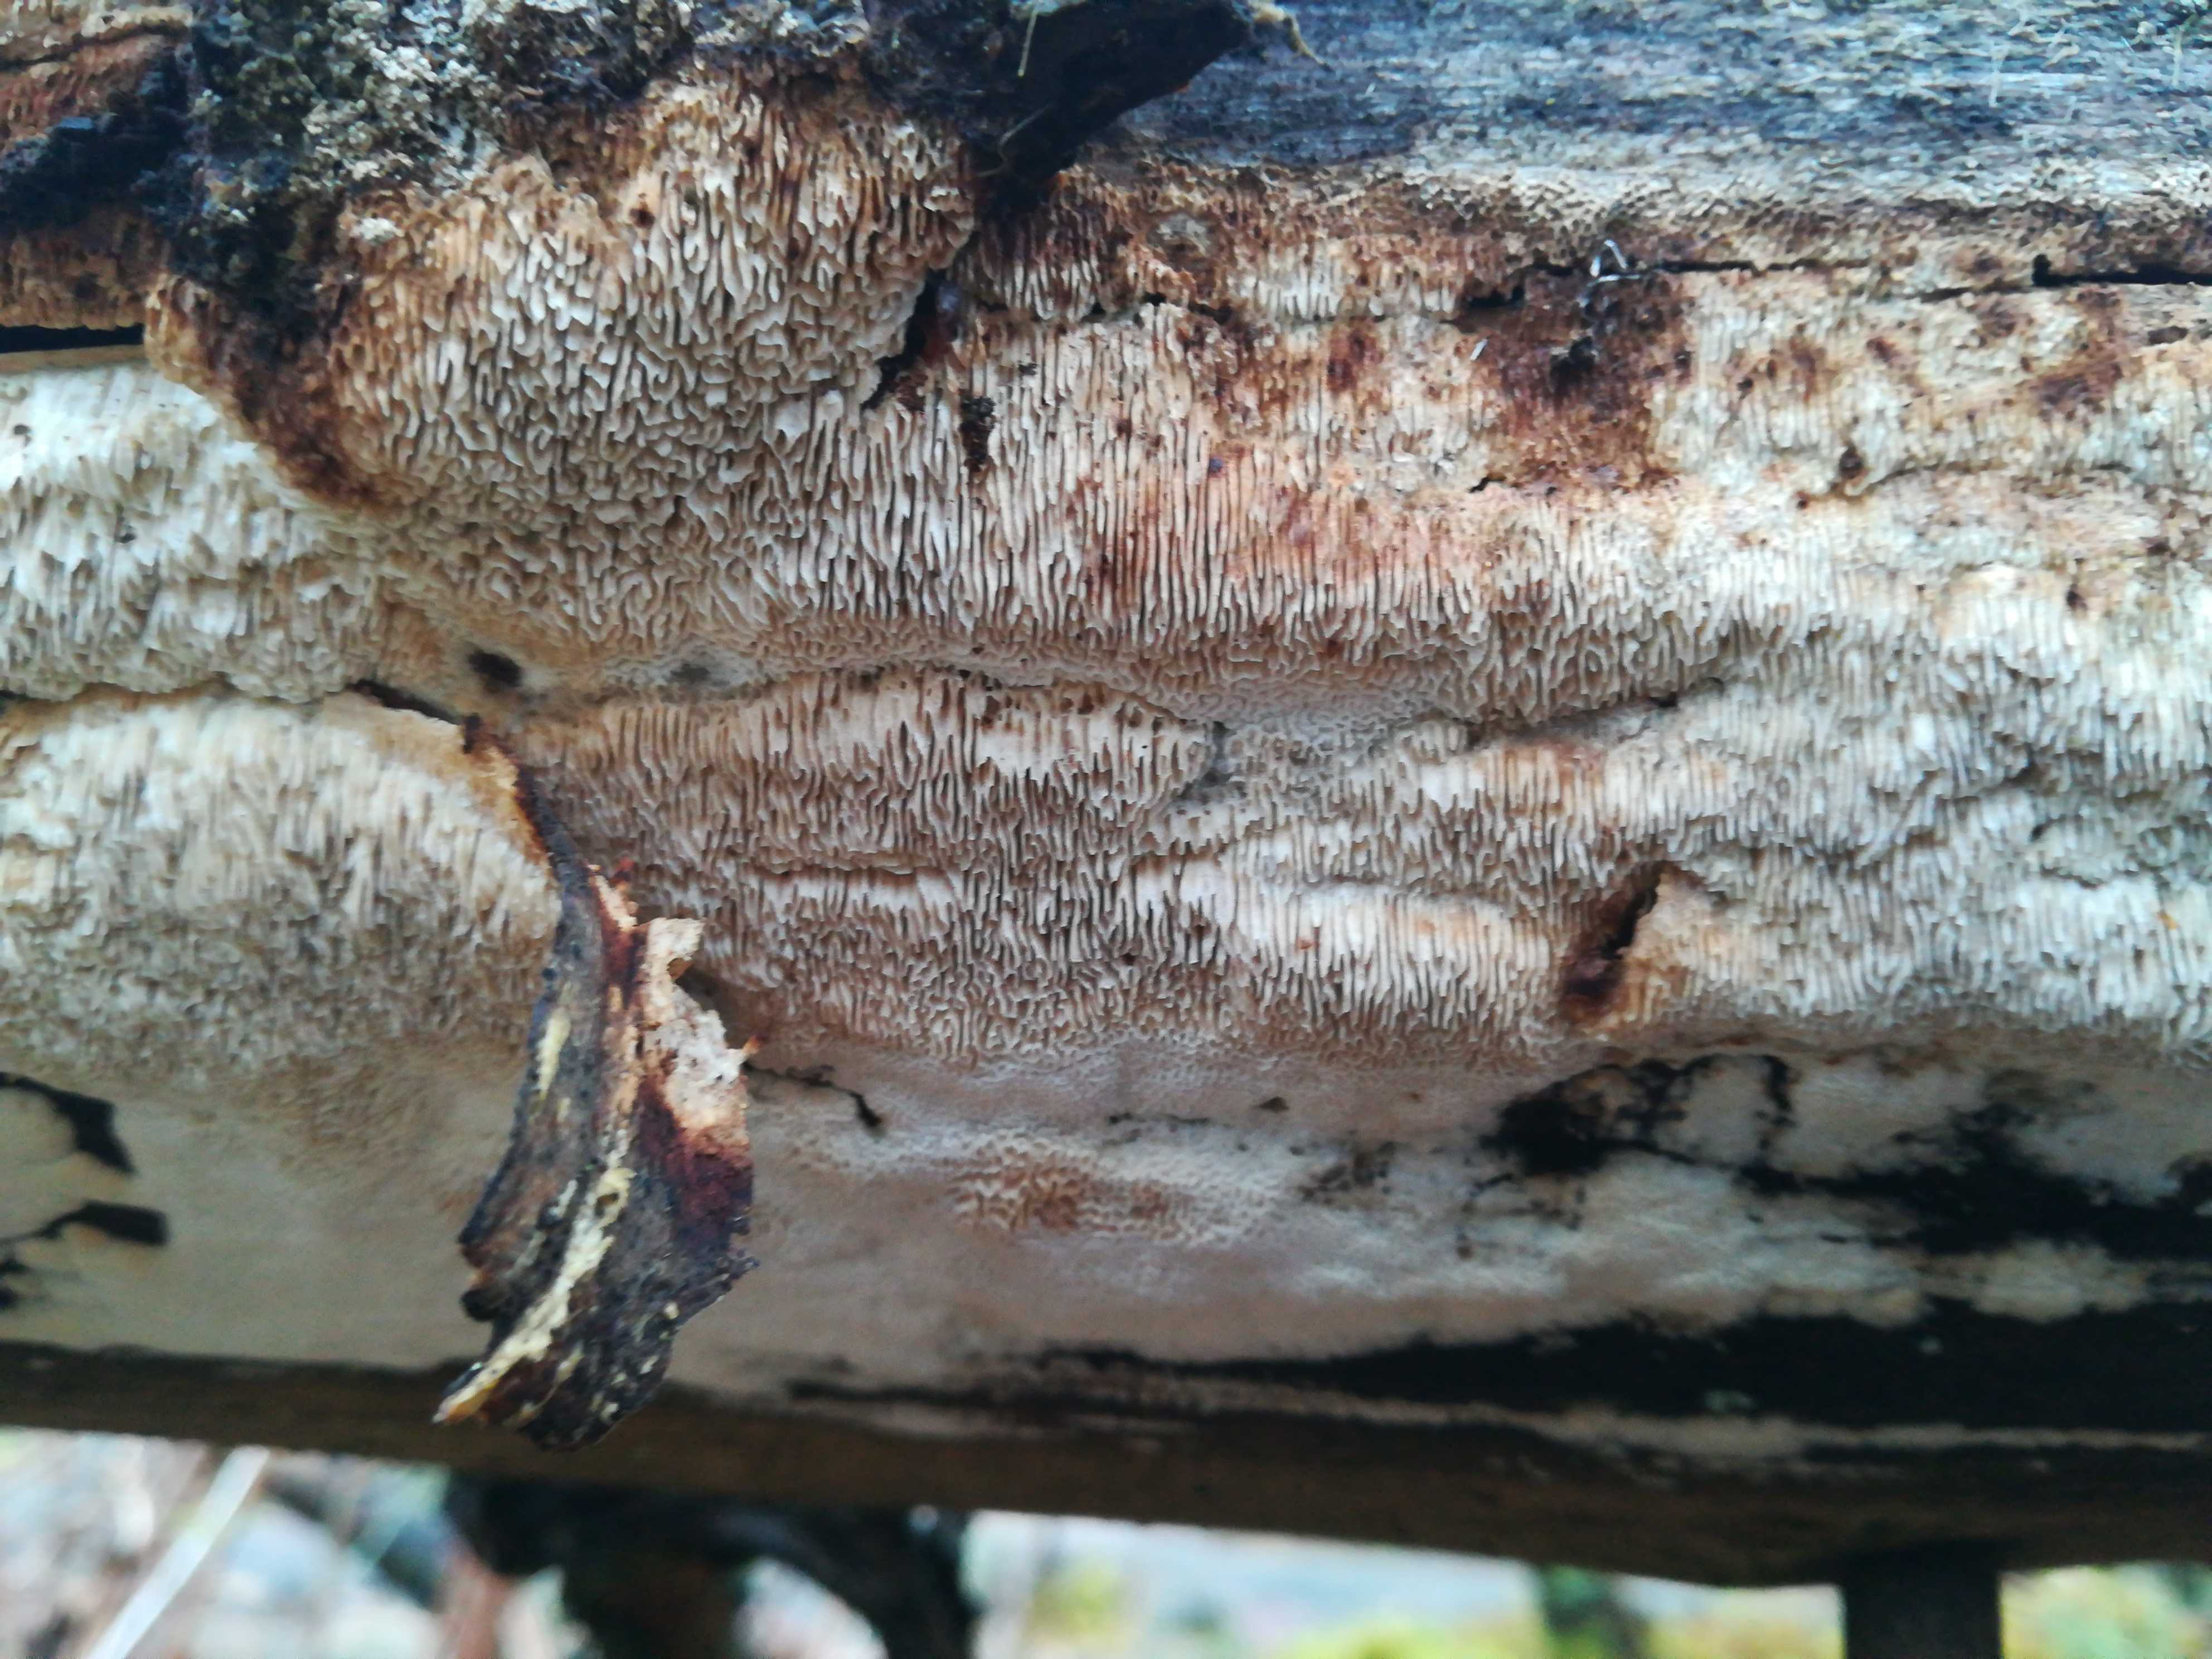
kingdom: Fungi
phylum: Basidiomycota
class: Agaricomycetes
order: Polyporales
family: Fomitopsidaceae
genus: Antrodia
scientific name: Antrodia sinuosa
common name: tømmer-sejporesvamp
